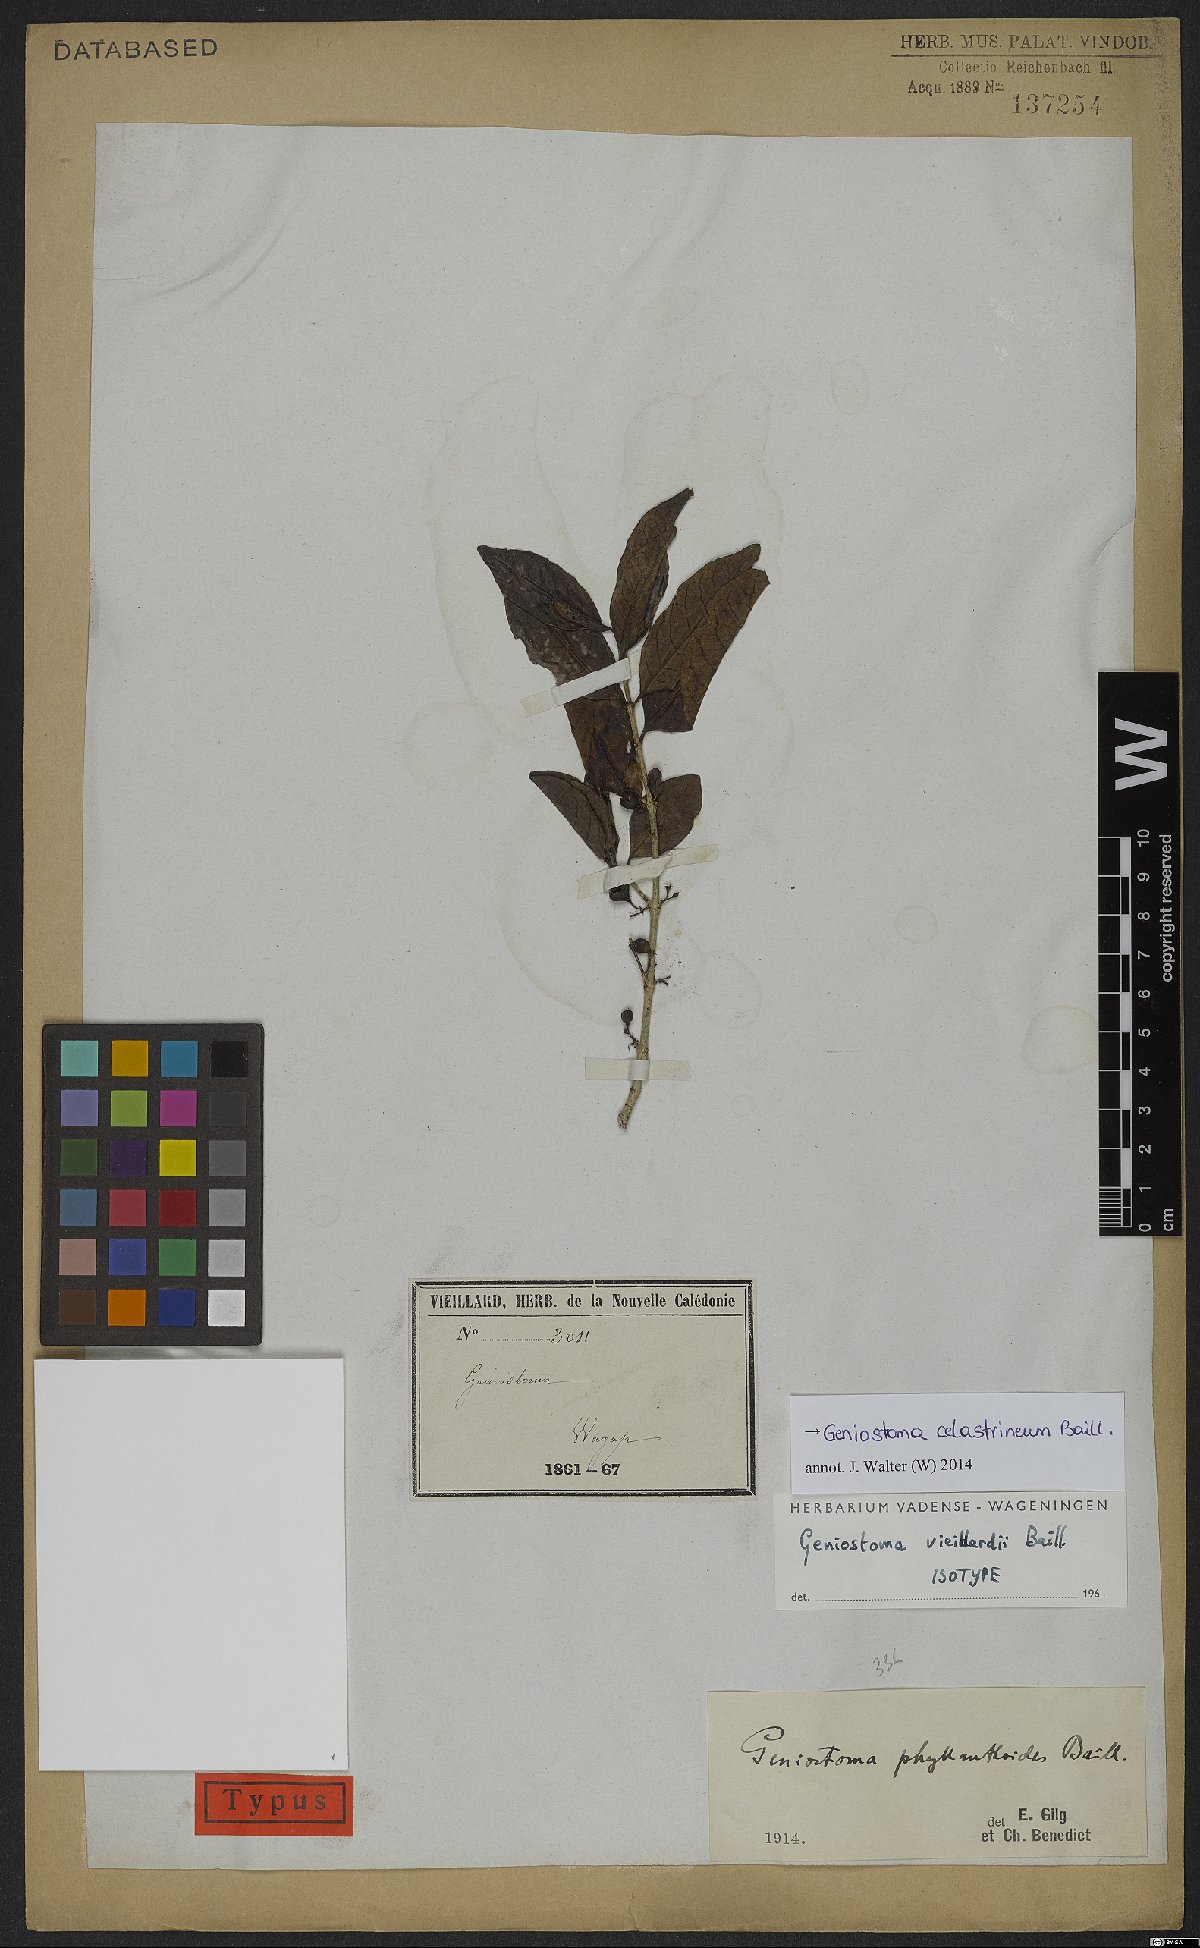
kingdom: Plantae
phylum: Tracheophyta
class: Magnoliopsida
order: Gentianales
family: Loganiaceae
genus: Geniostoma
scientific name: Geniostoma celastrineum
